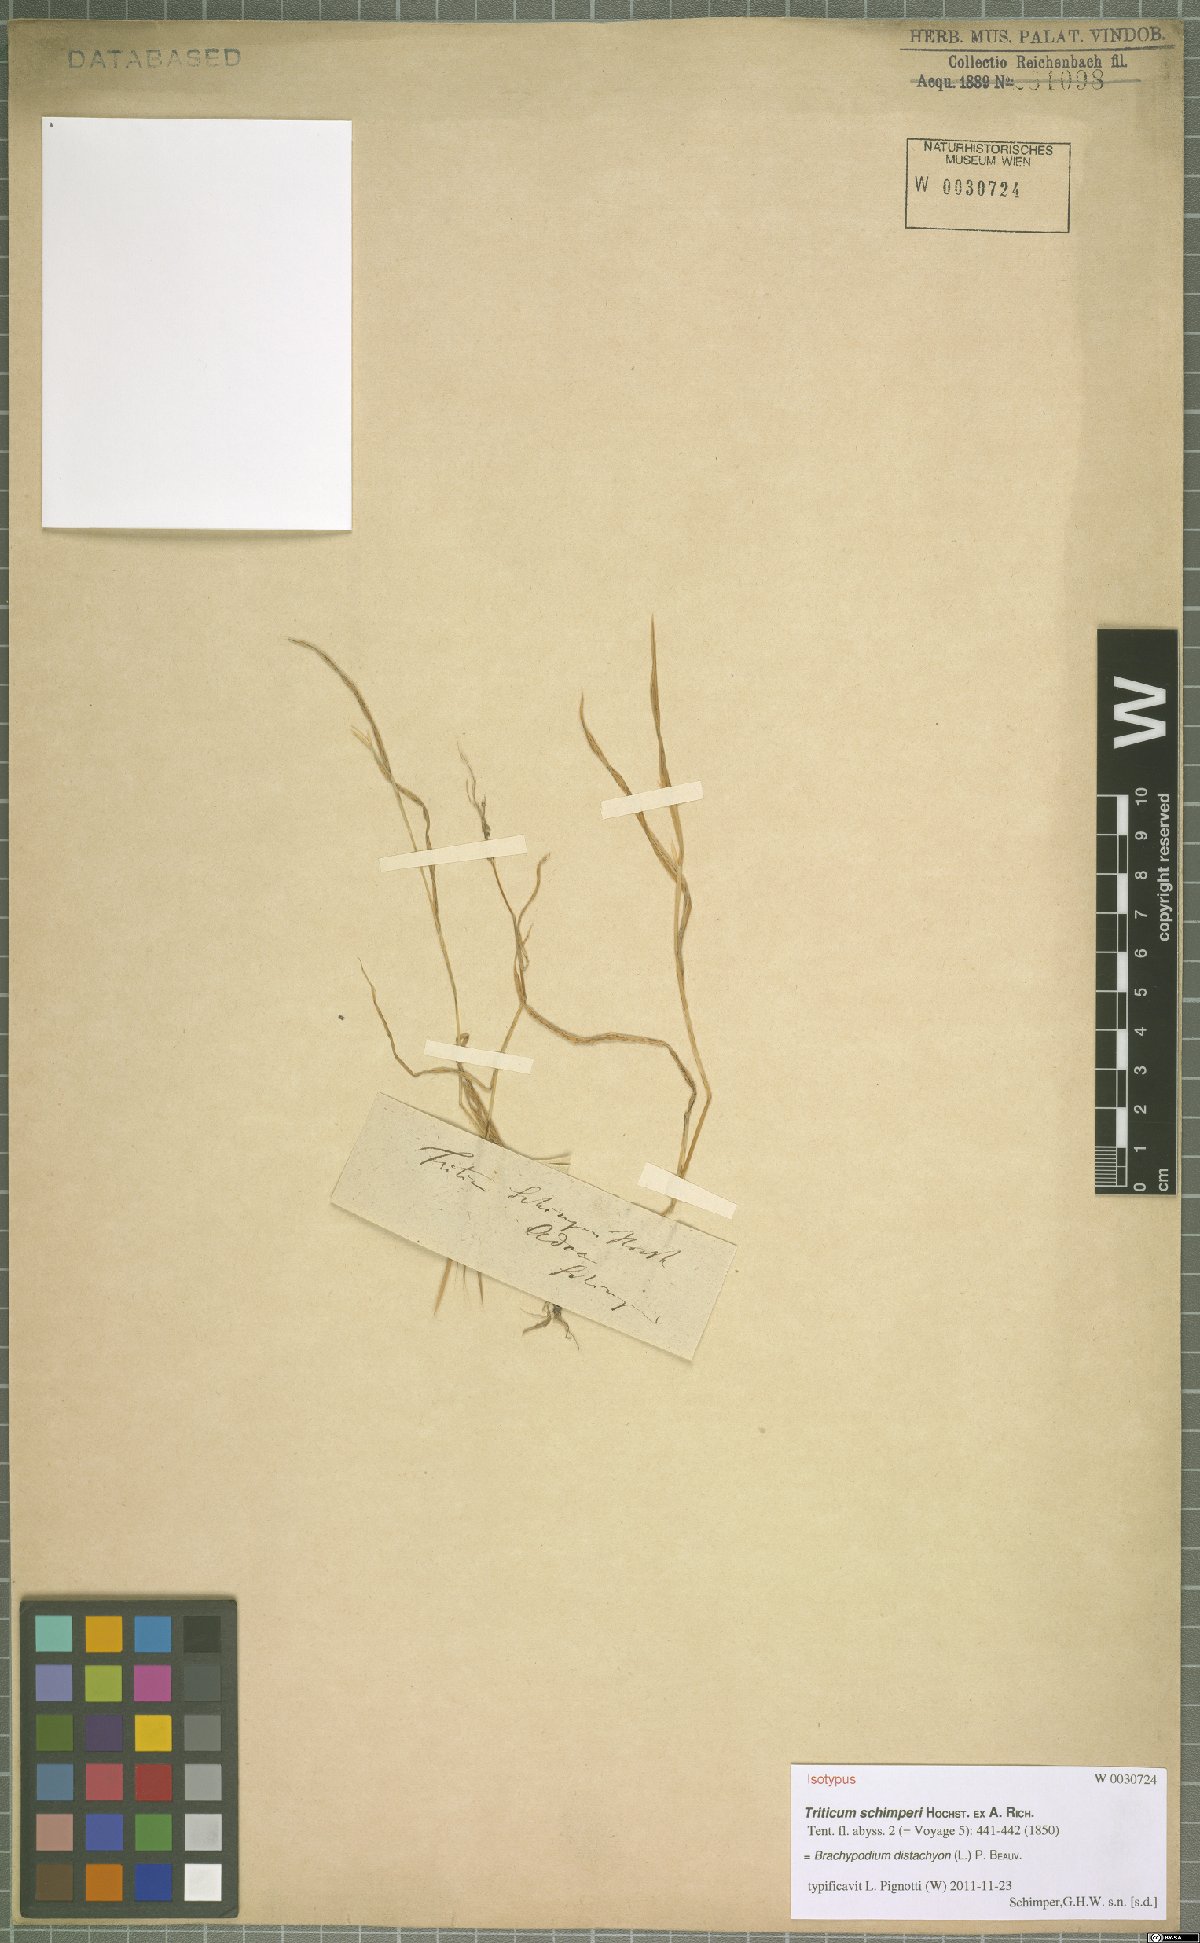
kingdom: Plantae
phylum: Tracheophyta
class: Liliopsida
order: Poales
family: Poaceae
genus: Brachypodium
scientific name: Brachypodium distachyon
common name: Stiff brome
